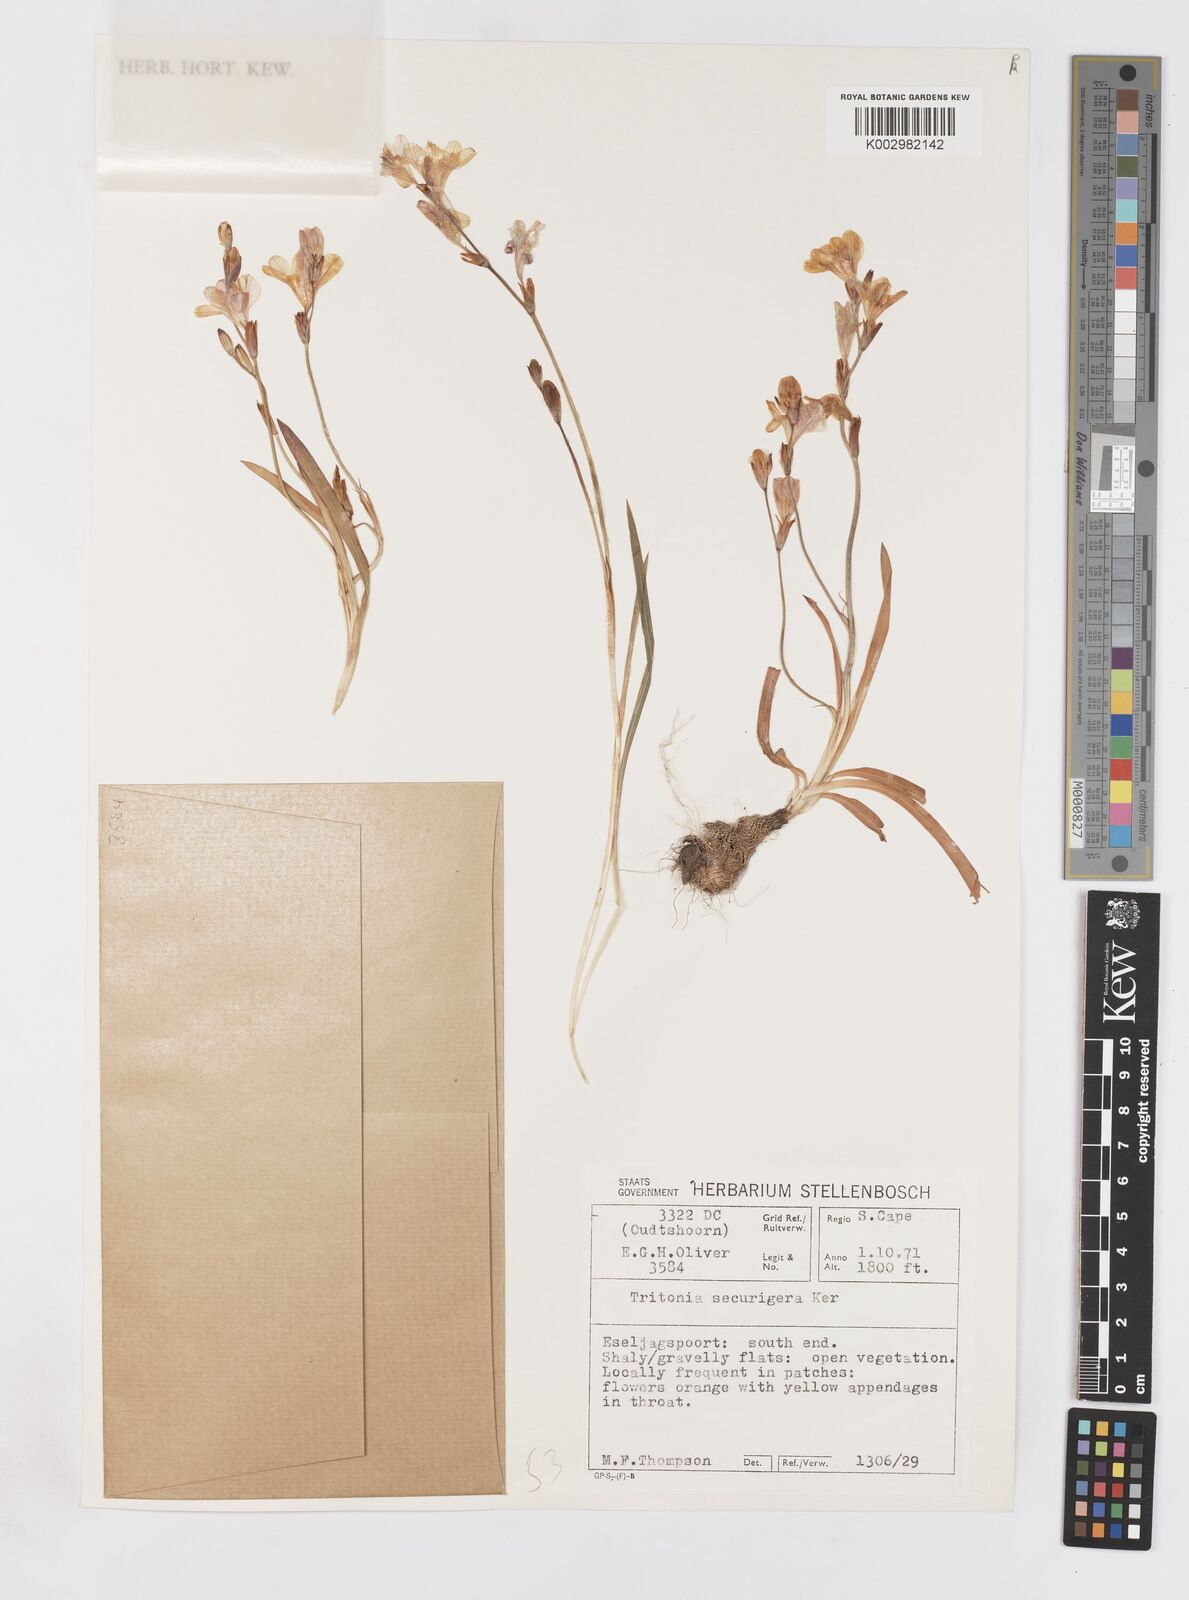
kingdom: Plantae
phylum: Tracheophyta
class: Liliopsida
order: Asparagales
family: Iridaceae
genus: Tritonia
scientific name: Tritonia securigera
